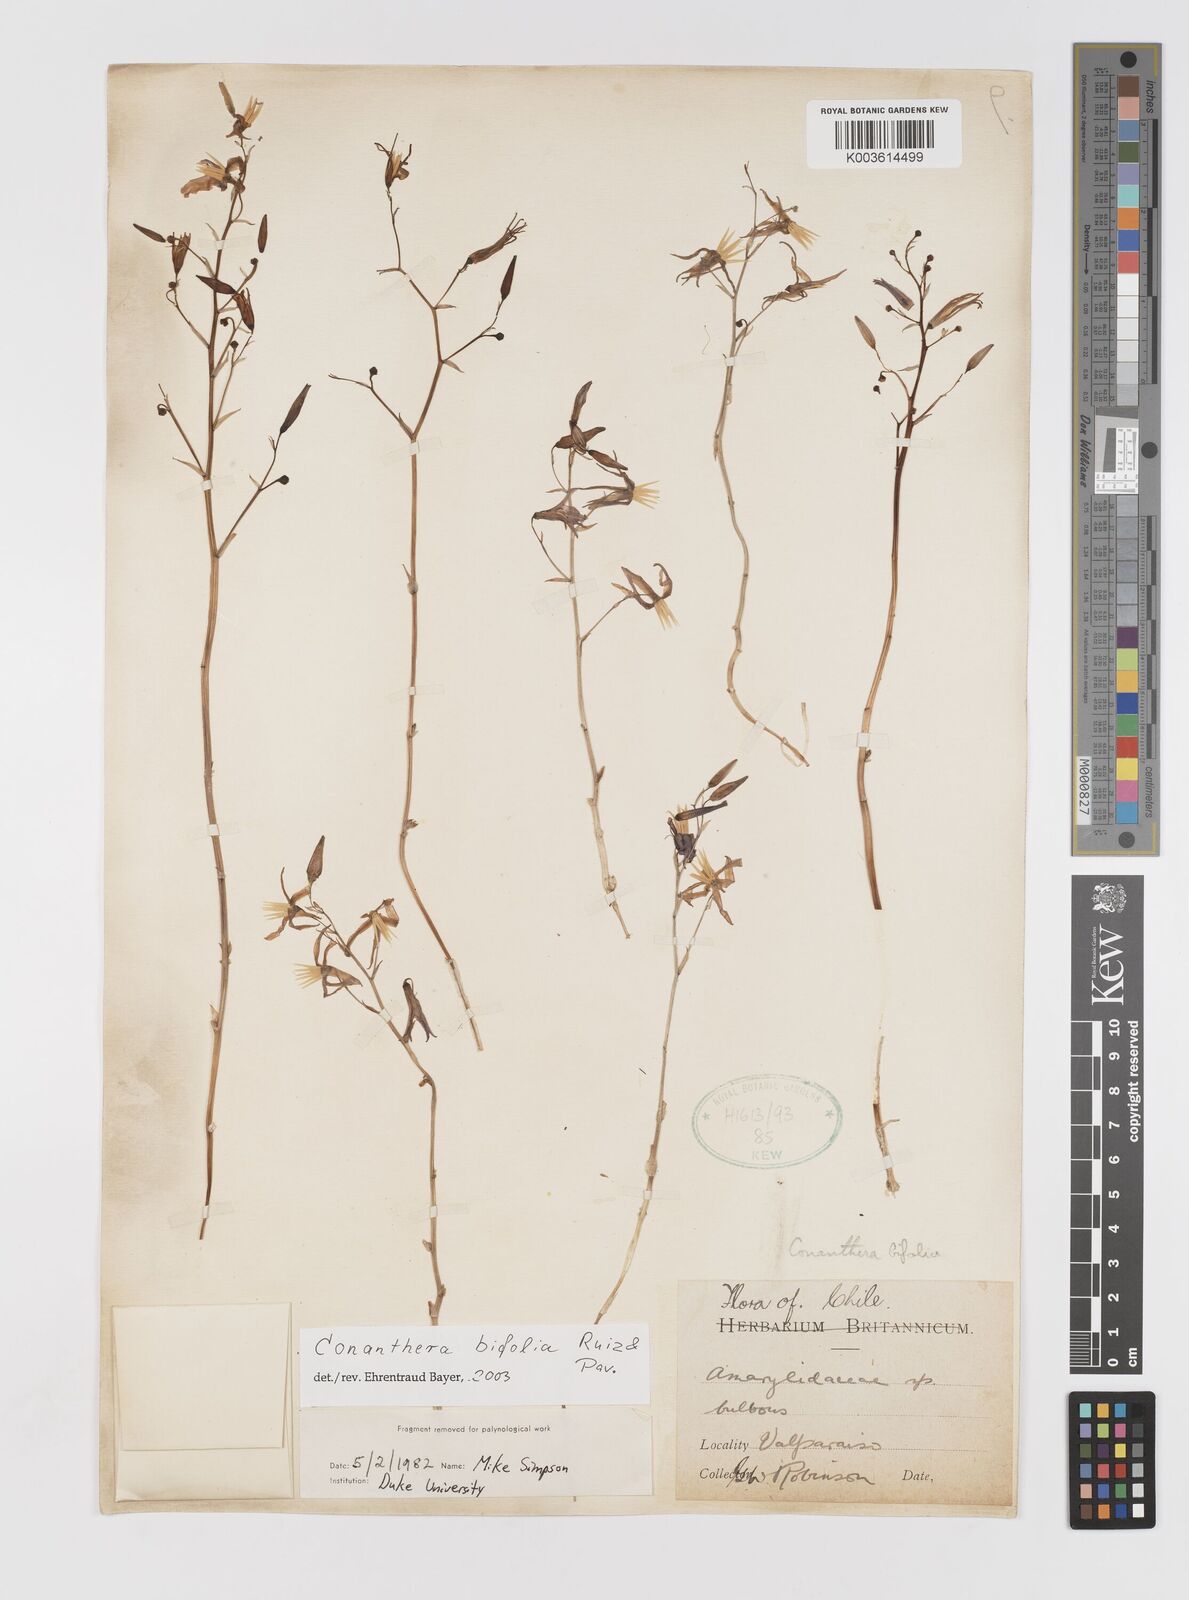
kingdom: Plantae
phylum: Tracheophyta
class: Liliopsida
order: Asparagales
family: Tecophilaeaceae
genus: Conanthera
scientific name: Conanthera bifolia
